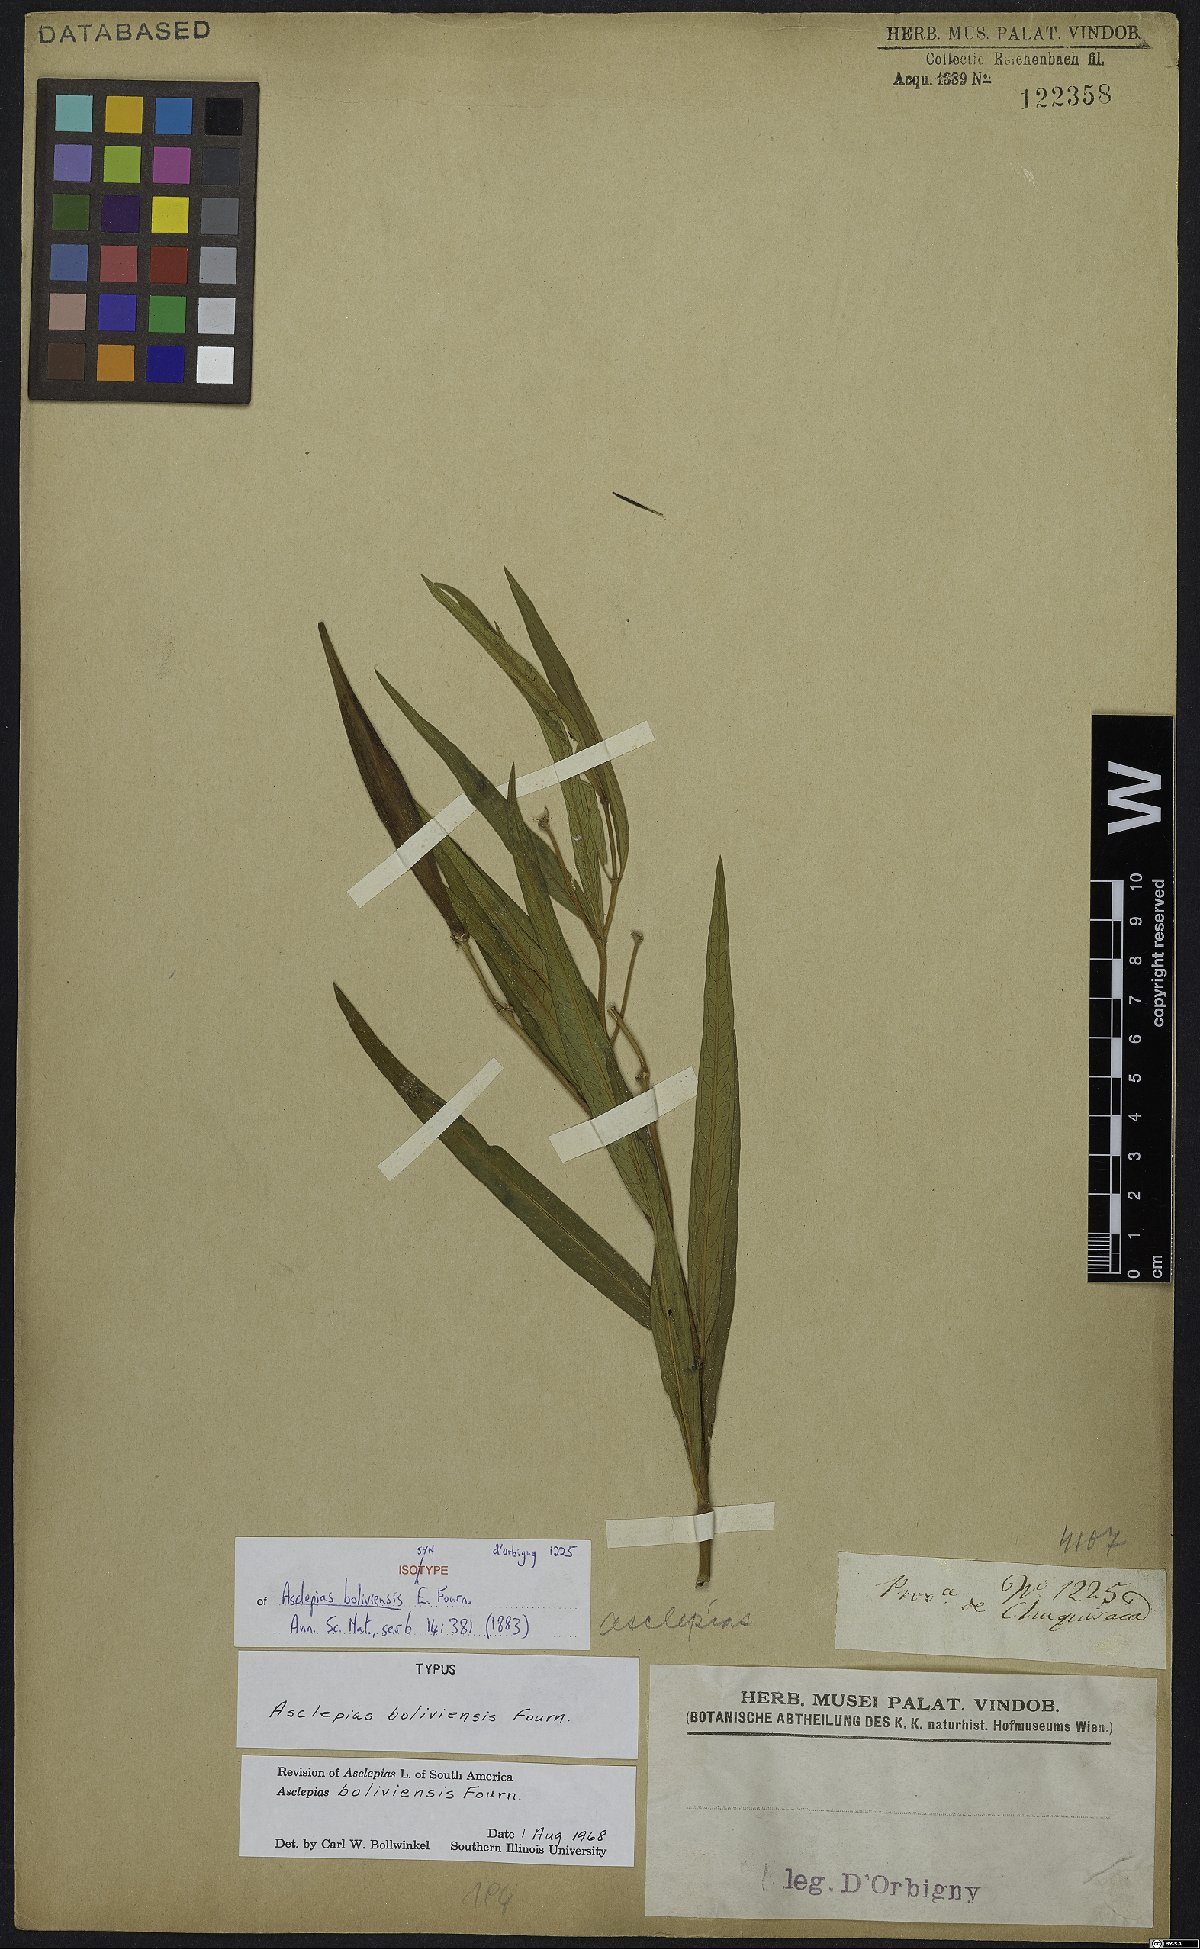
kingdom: Plantae
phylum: Tracheophyta
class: Magnoliopsida
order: Gentianales
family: Apocynaceae
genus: Asclepias
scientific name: Asclepias boliviensis
